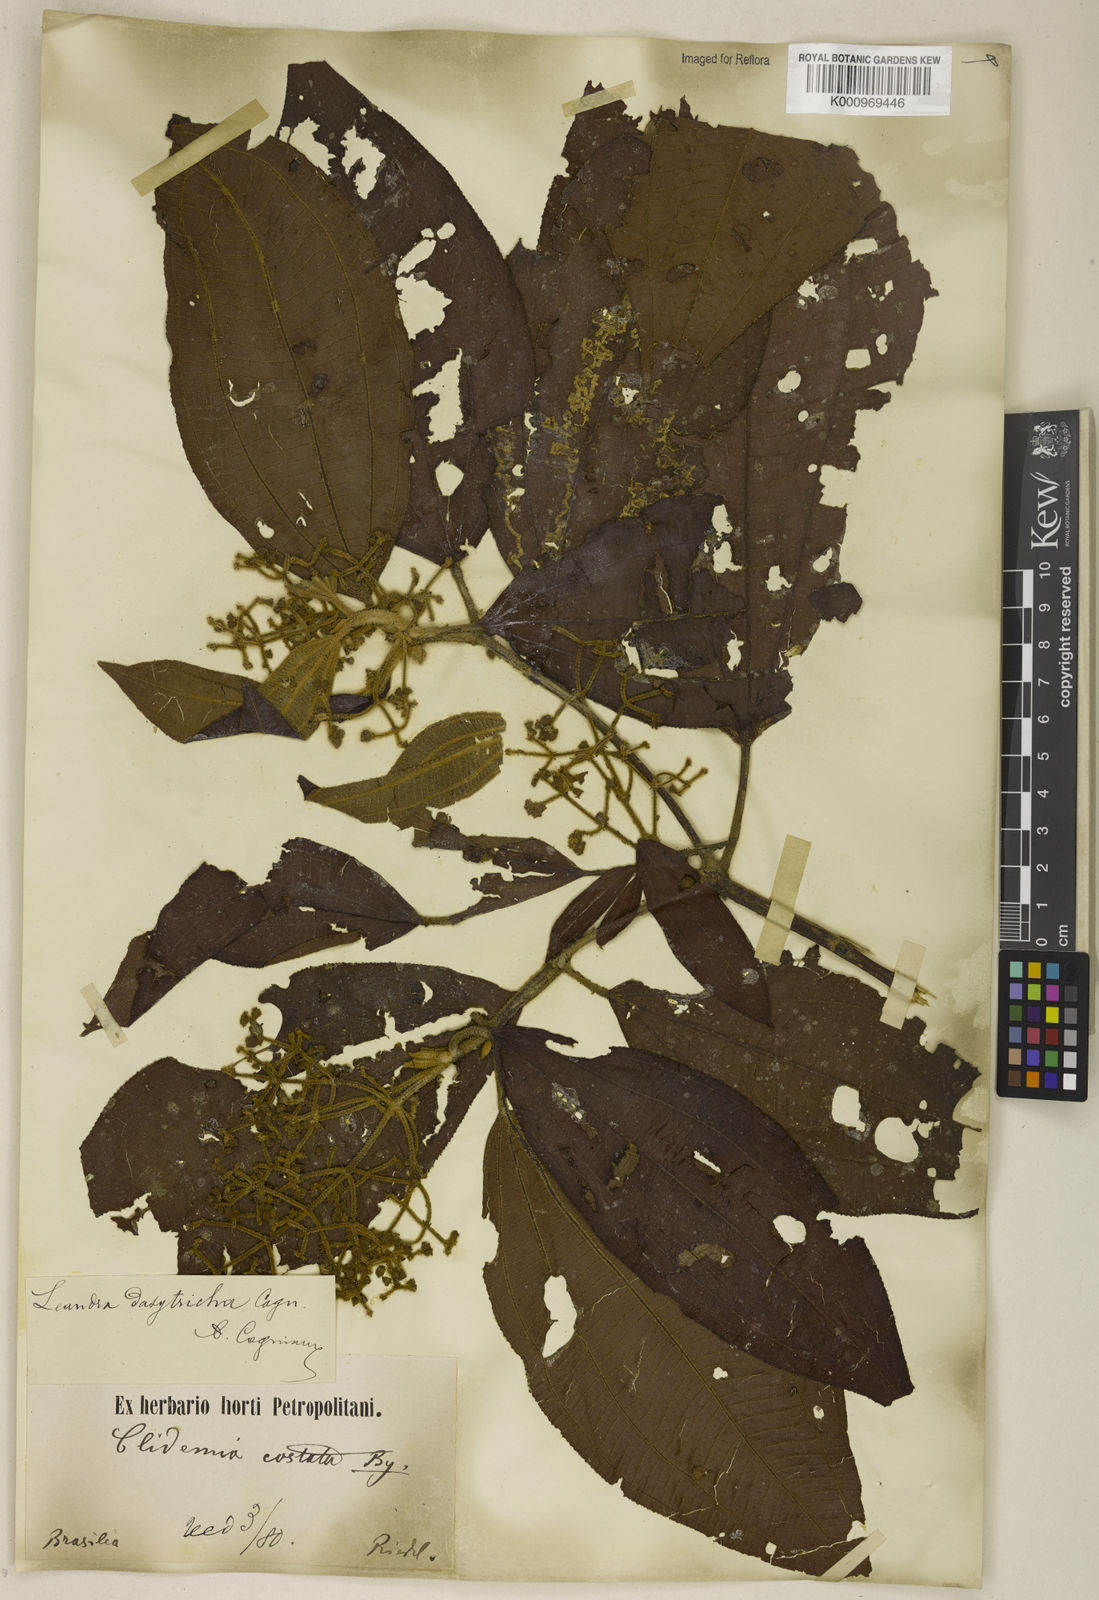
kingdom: Plantae
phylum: Tracheophyta
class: Magnoliopsida
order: Myrtales
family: Melastomataceae
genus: Miconia
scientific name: Miconia dasytricha
